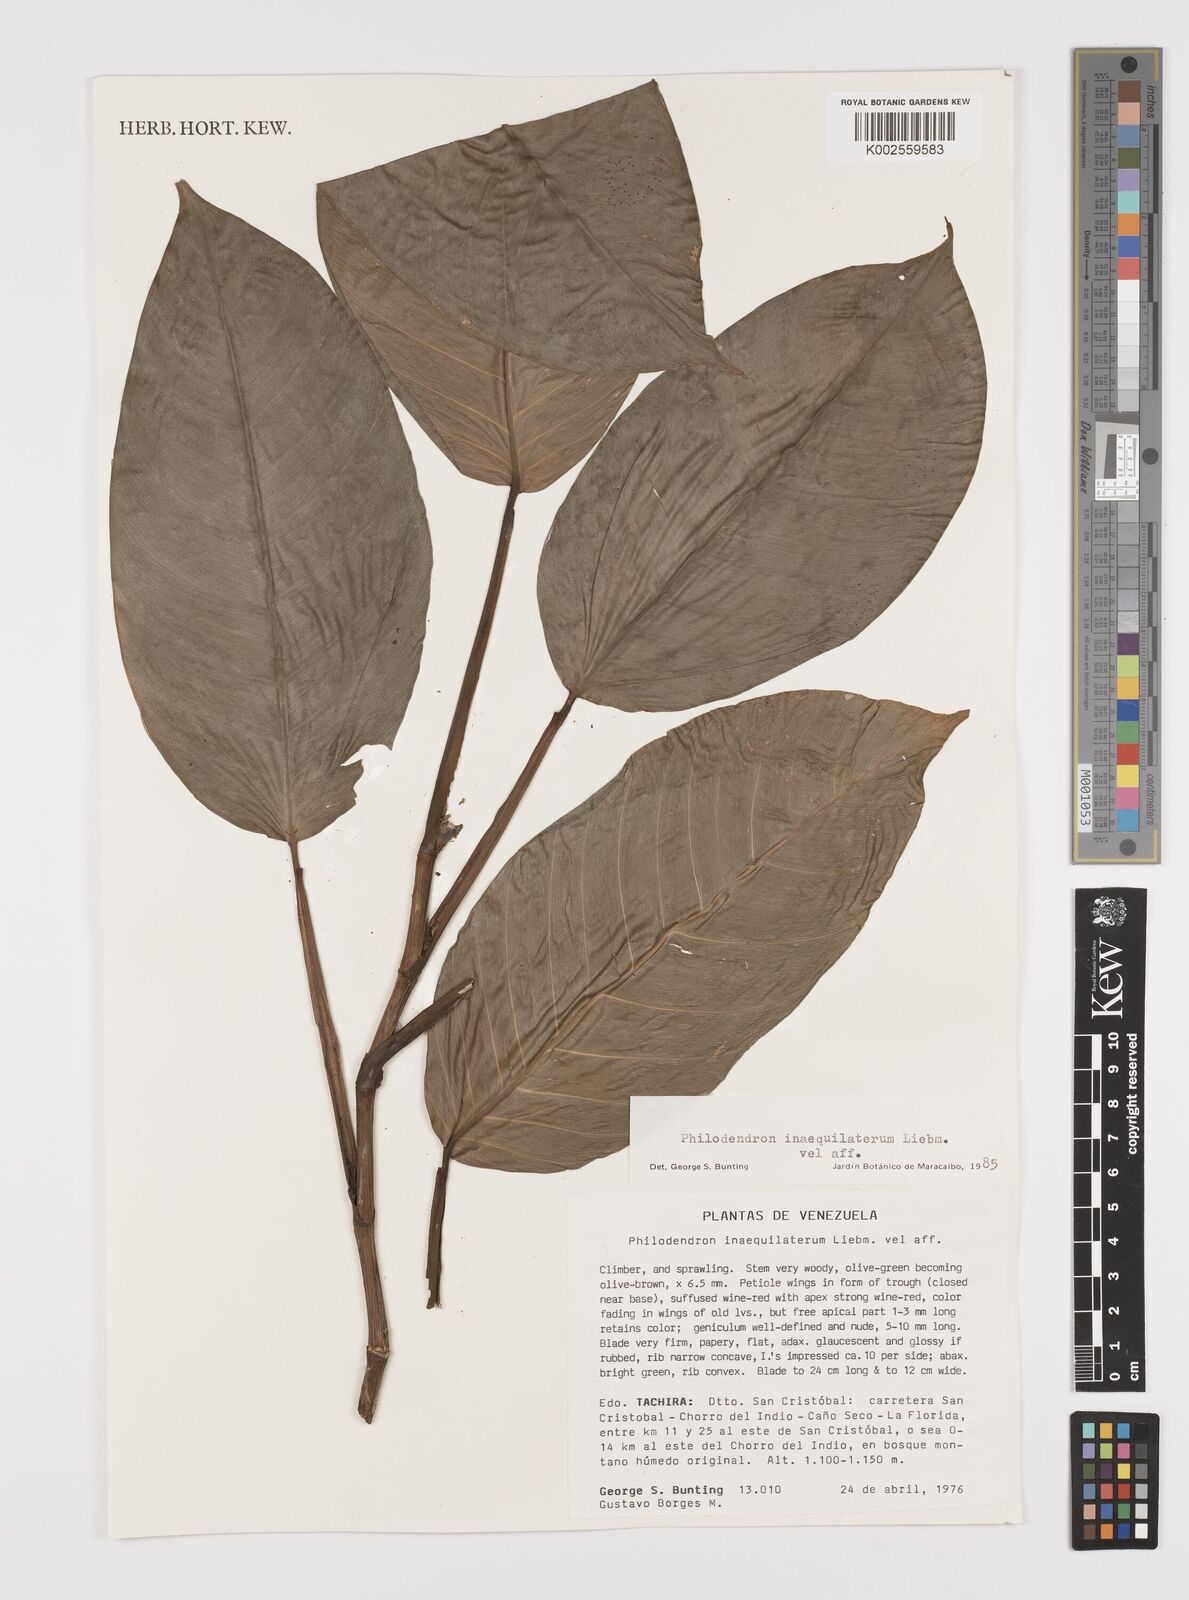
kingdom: Plantae
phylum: Tracheophyta
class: Liliopsida
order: Alismatales
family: Araceae
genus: Philodendron
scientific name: Philodendron inaequilaterum
